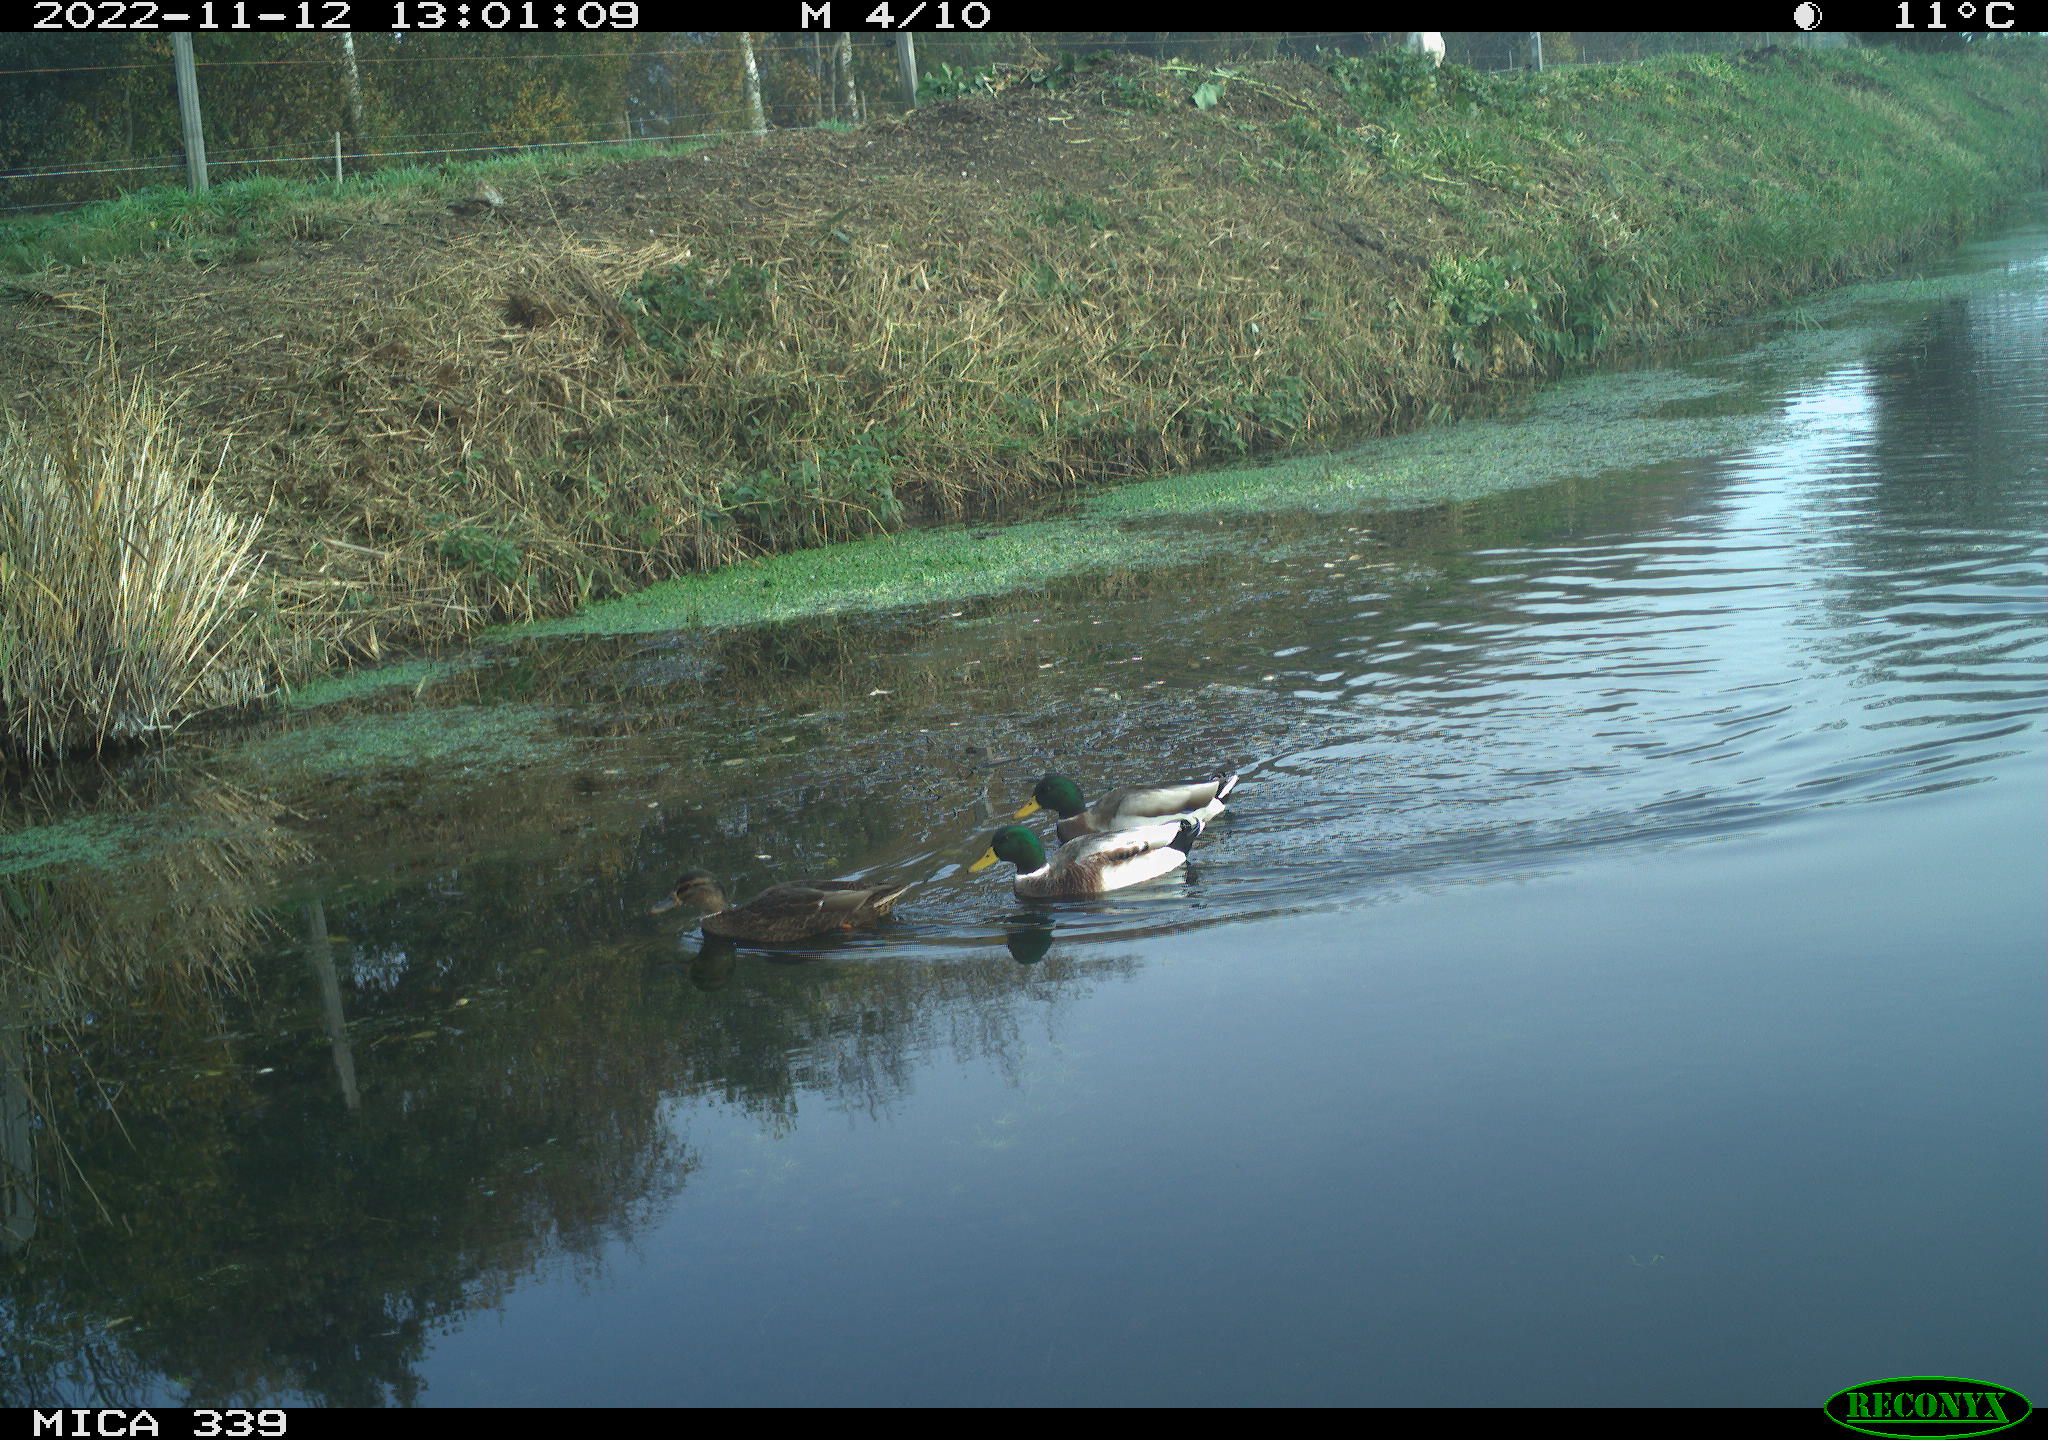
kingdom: Animalia
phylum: Chordata
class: Aves
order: Anseriformes
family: Anatidae
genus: Anas
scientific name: Anas platyrhynchos
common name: Mallard
